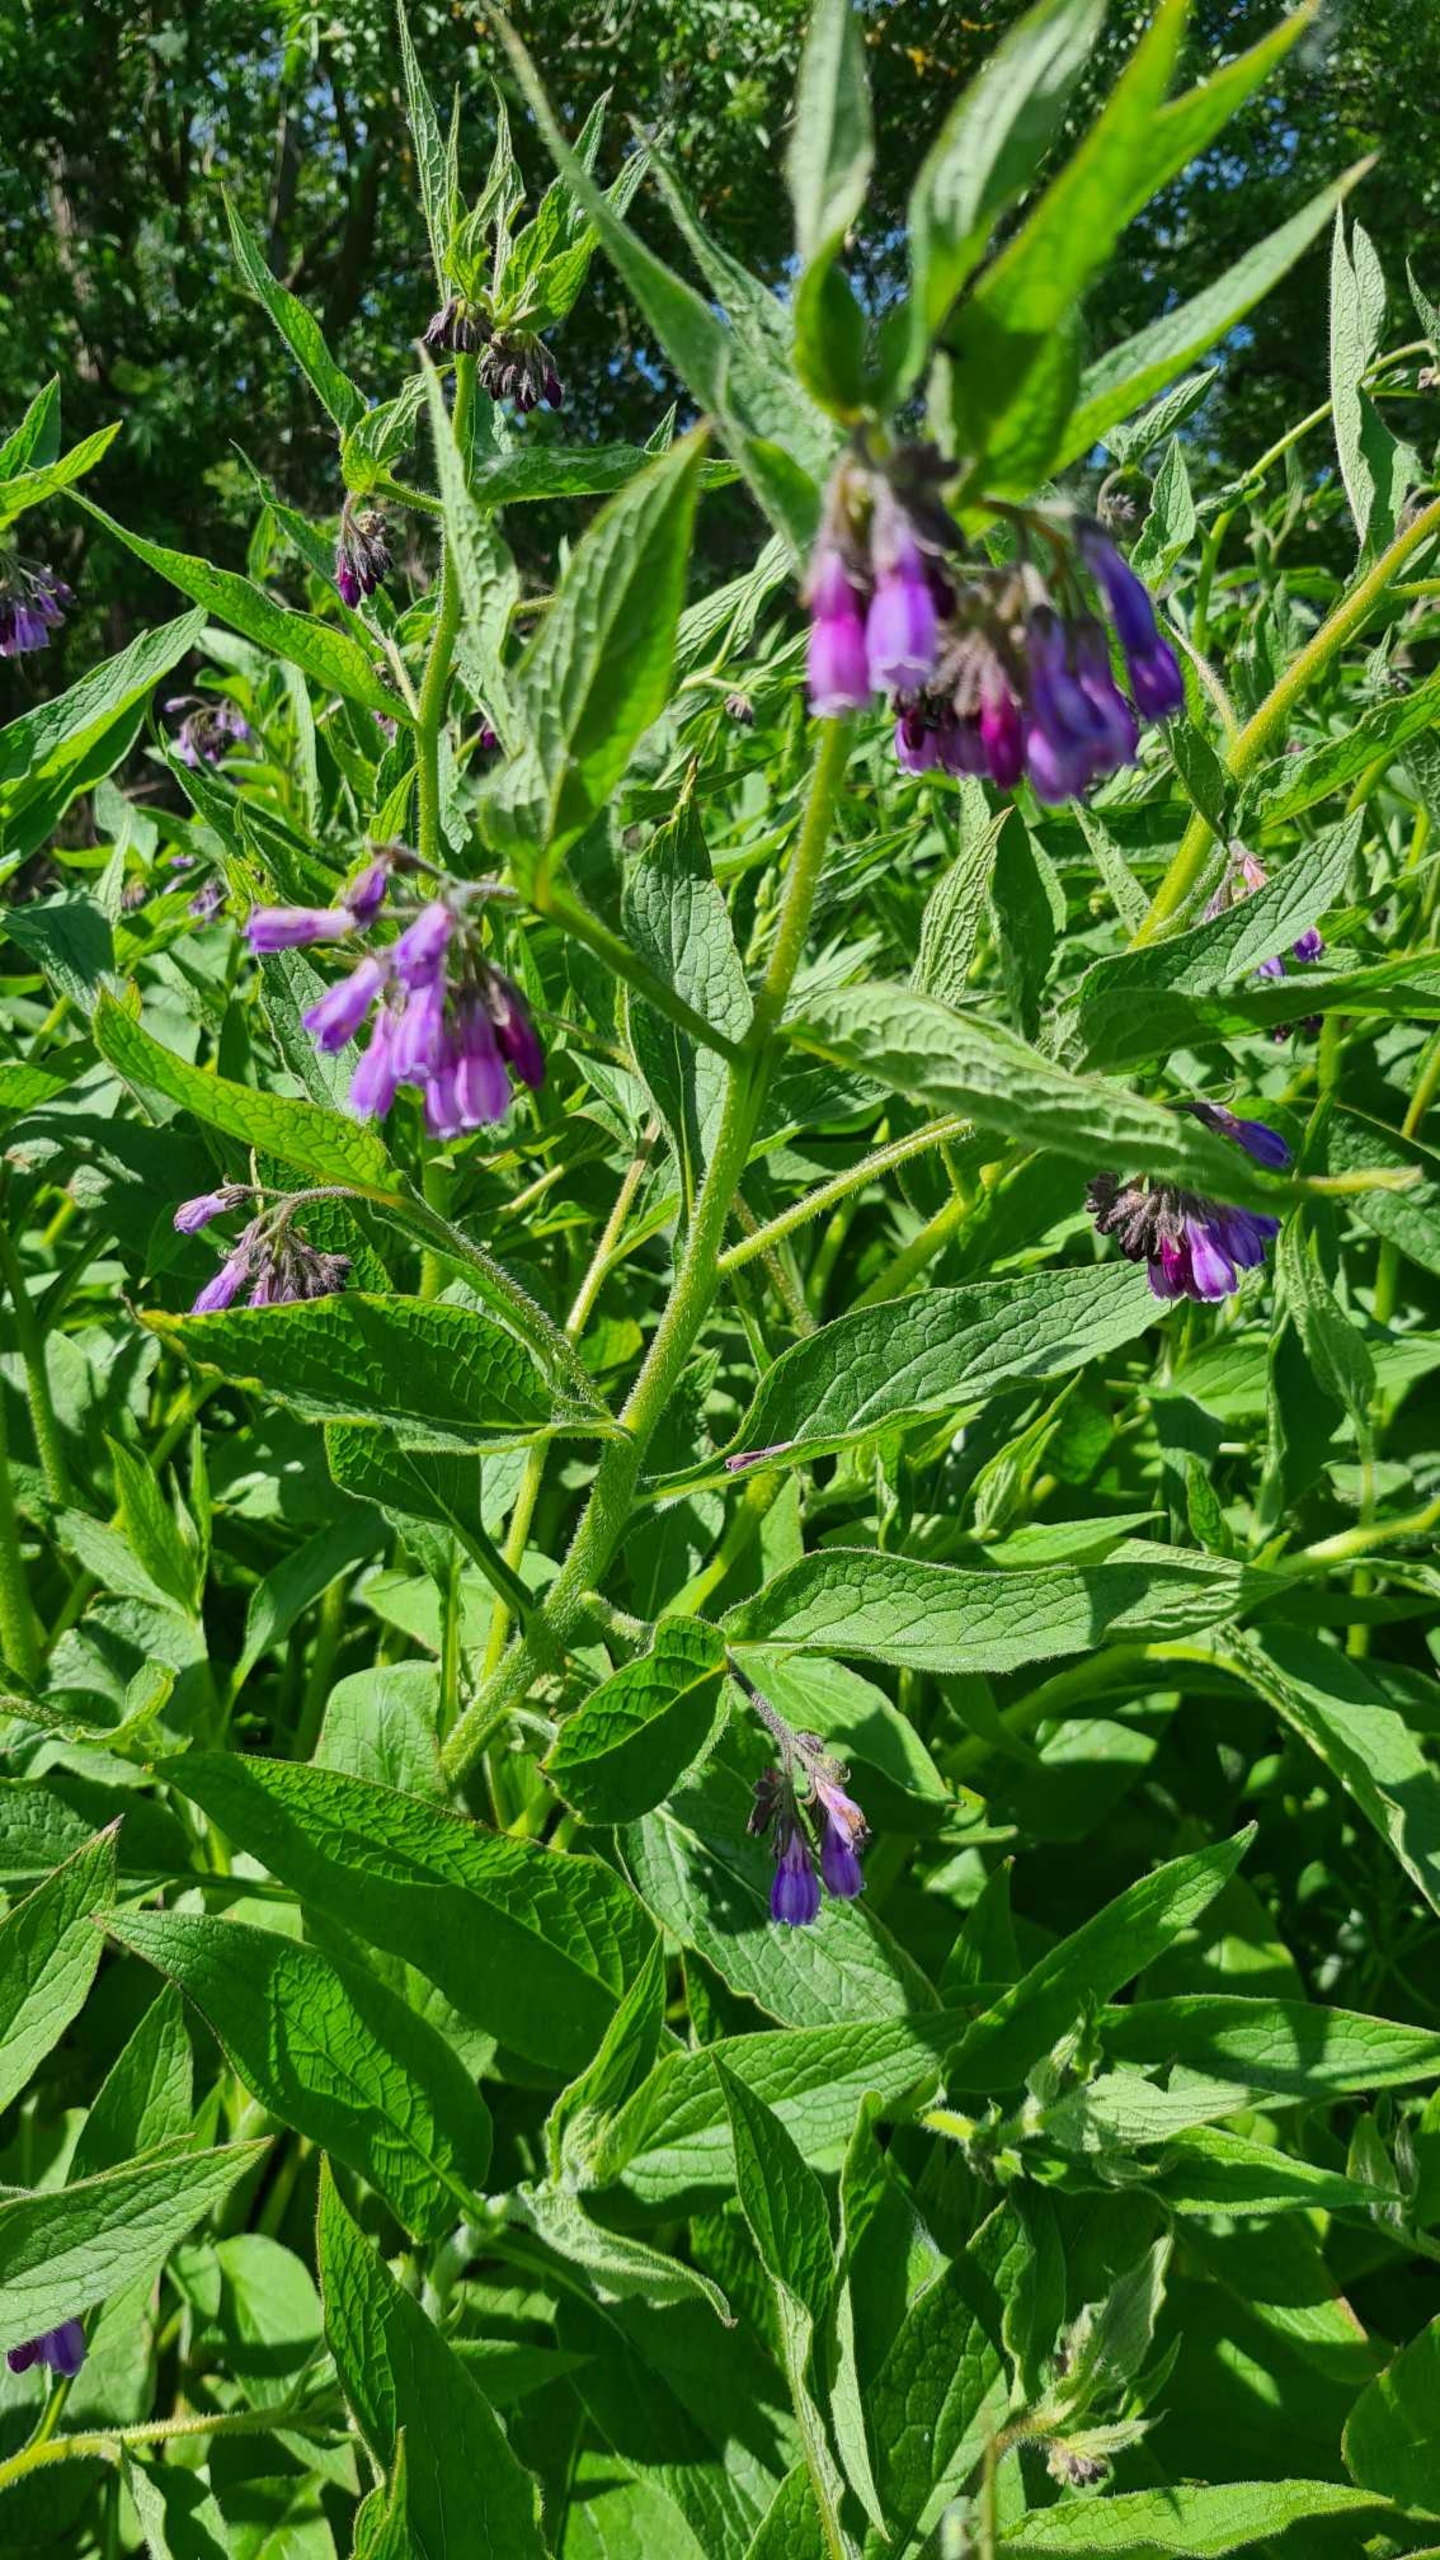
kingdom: Plantae
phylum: Tracheophyta
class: Magnoliopsida
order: Boraginales
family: Boraginaceae
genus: Symphytum
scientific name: Symphytum uplandicum
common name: Foder-kulsukker
